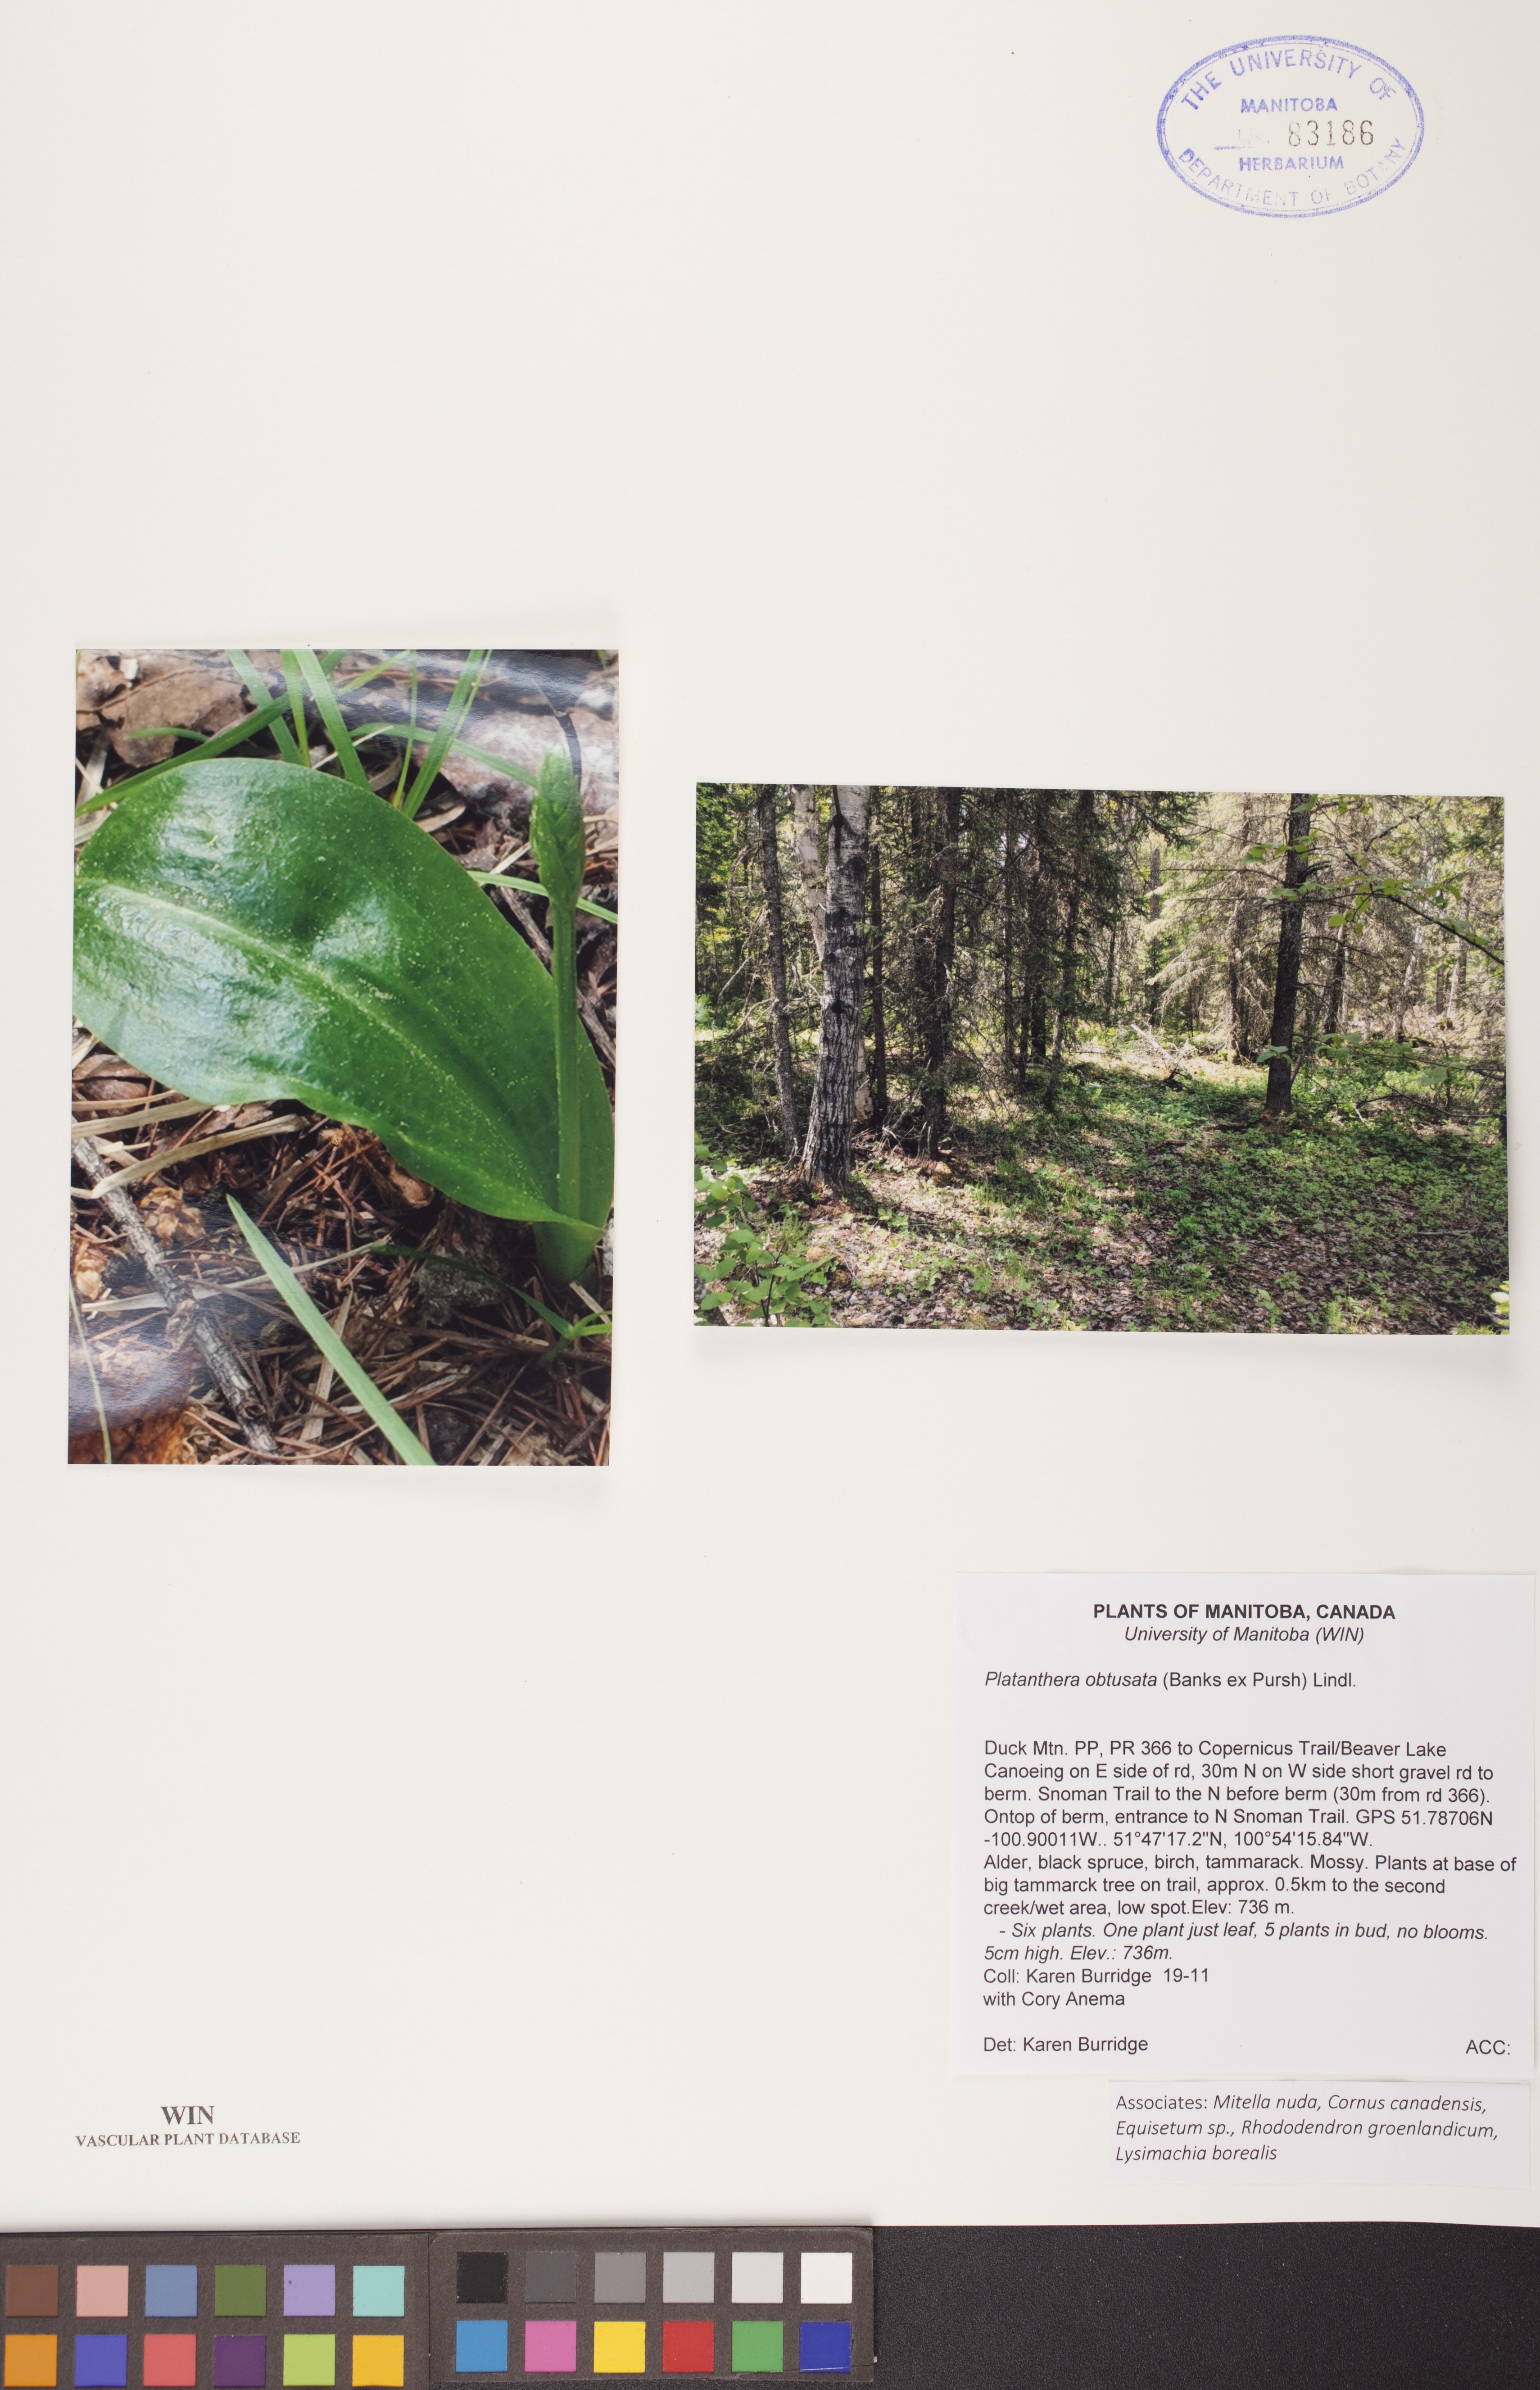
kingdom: Plantae
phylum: Tracheophyta
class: Liliopsida
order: Asparagales
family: Orchidaceae
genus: Platanthera
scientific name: Platanthera obtusata
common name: Blunt bog orchid
